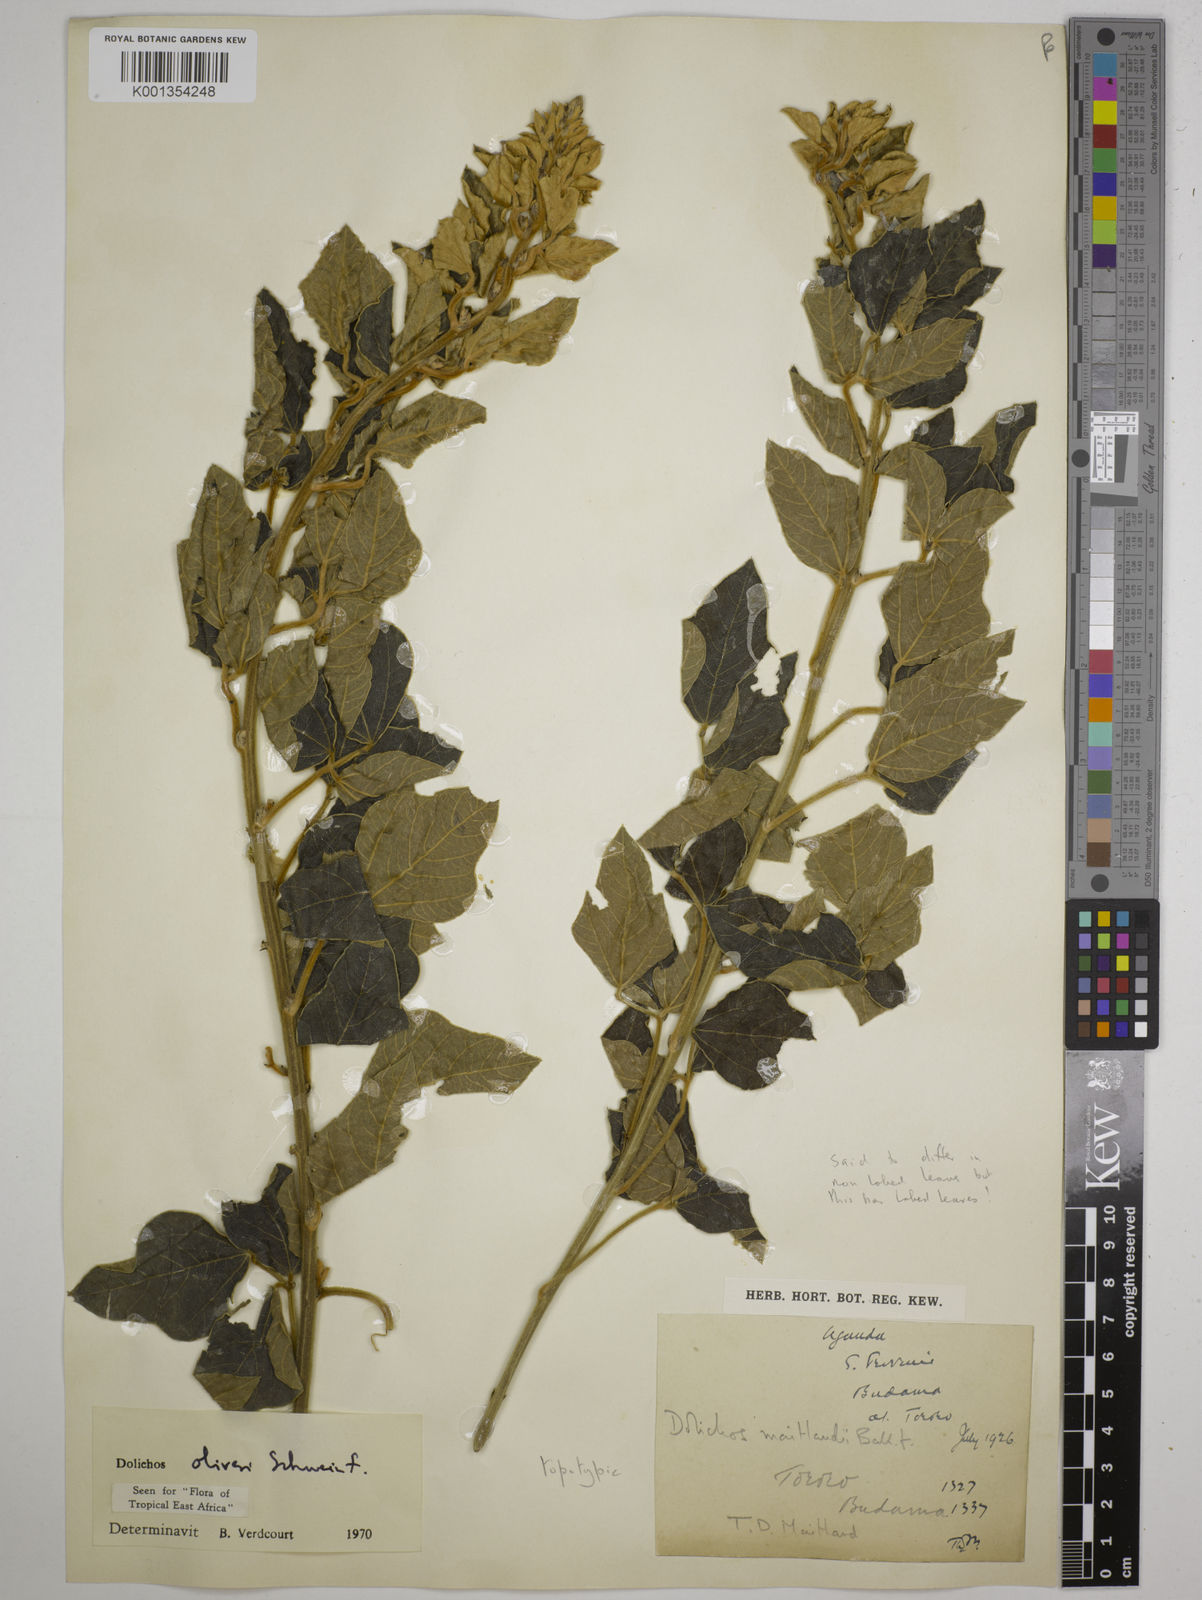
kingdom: Plantae
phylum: Tracheophyta
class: Magnoliopsida
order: Fabales
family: Fabaceae
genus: Dolichos
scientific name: Dolichos oliveri
